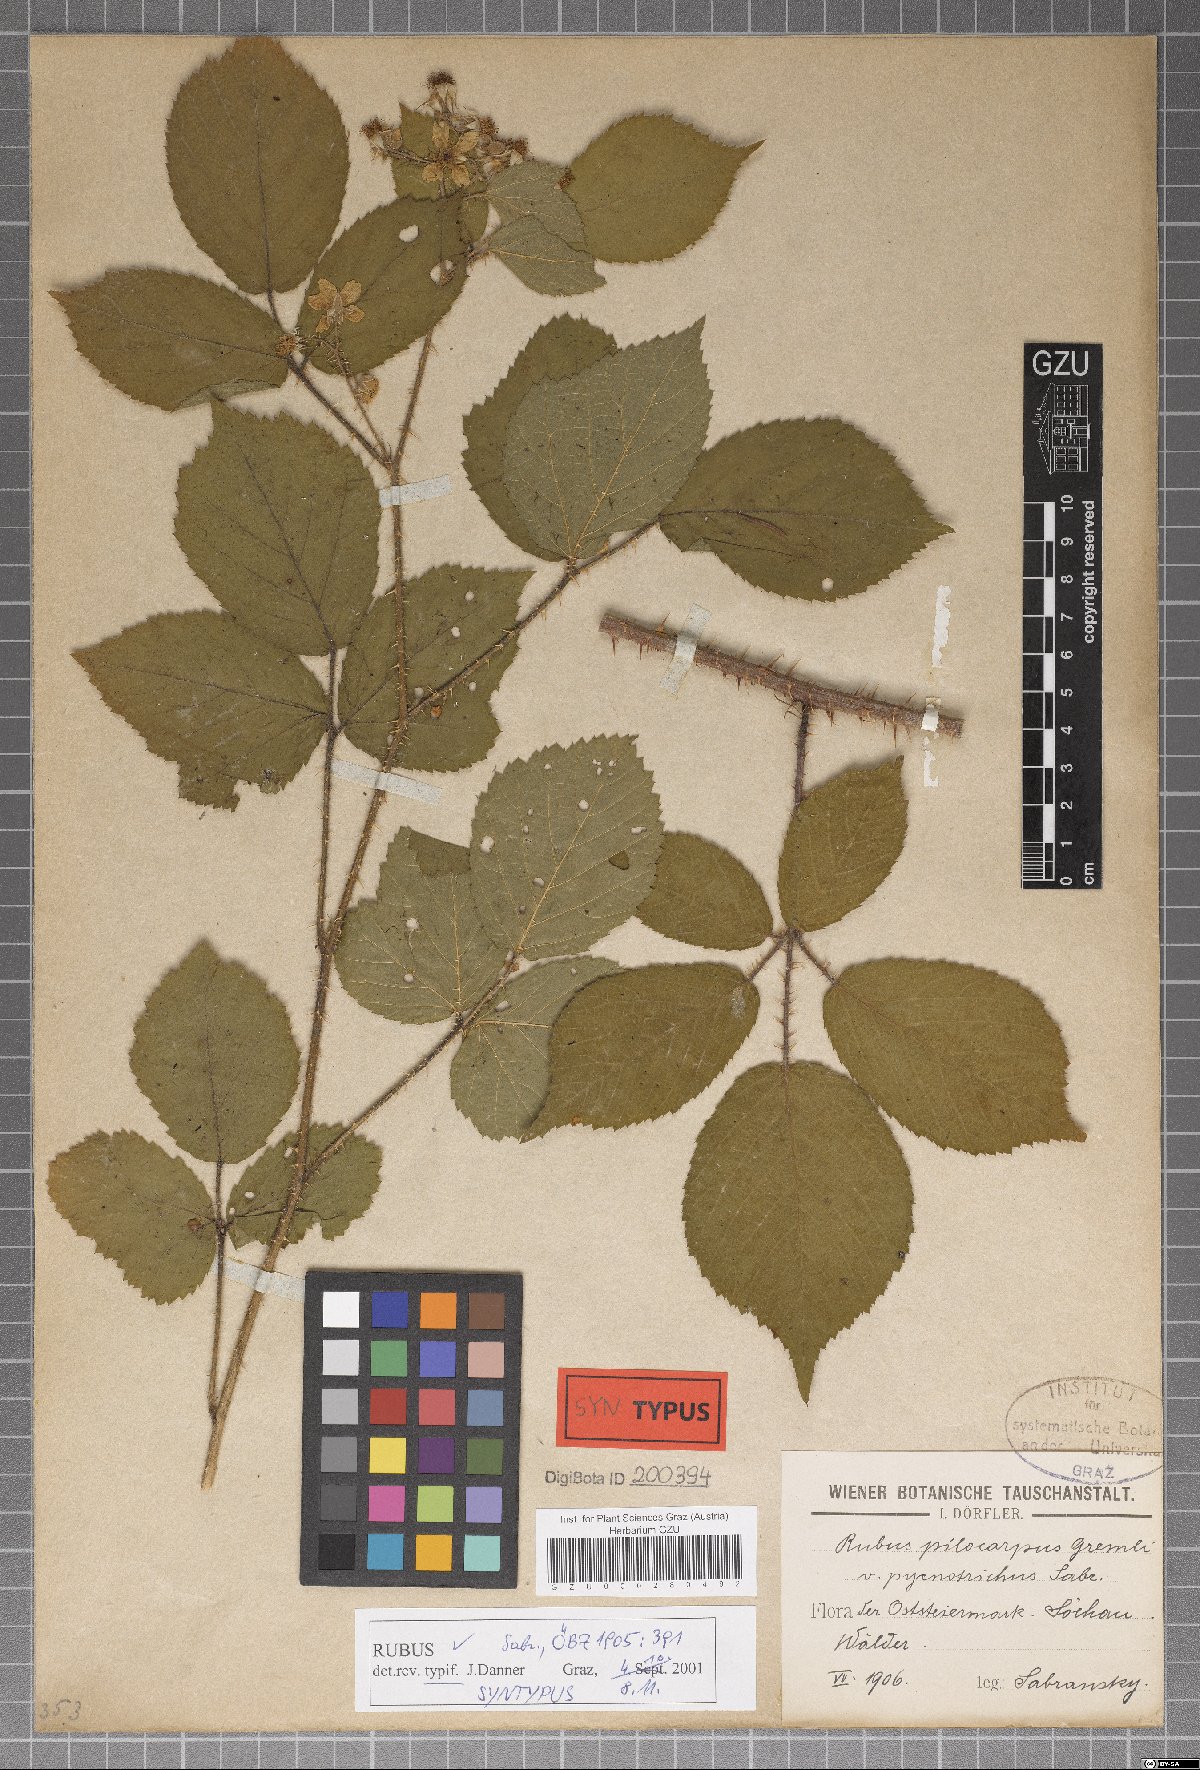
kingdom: Plantae
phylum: Tracheophyta
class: Magnoliopsida
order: Rosales
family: Rosaceae
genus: Rubus
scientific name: Rubus horridus
